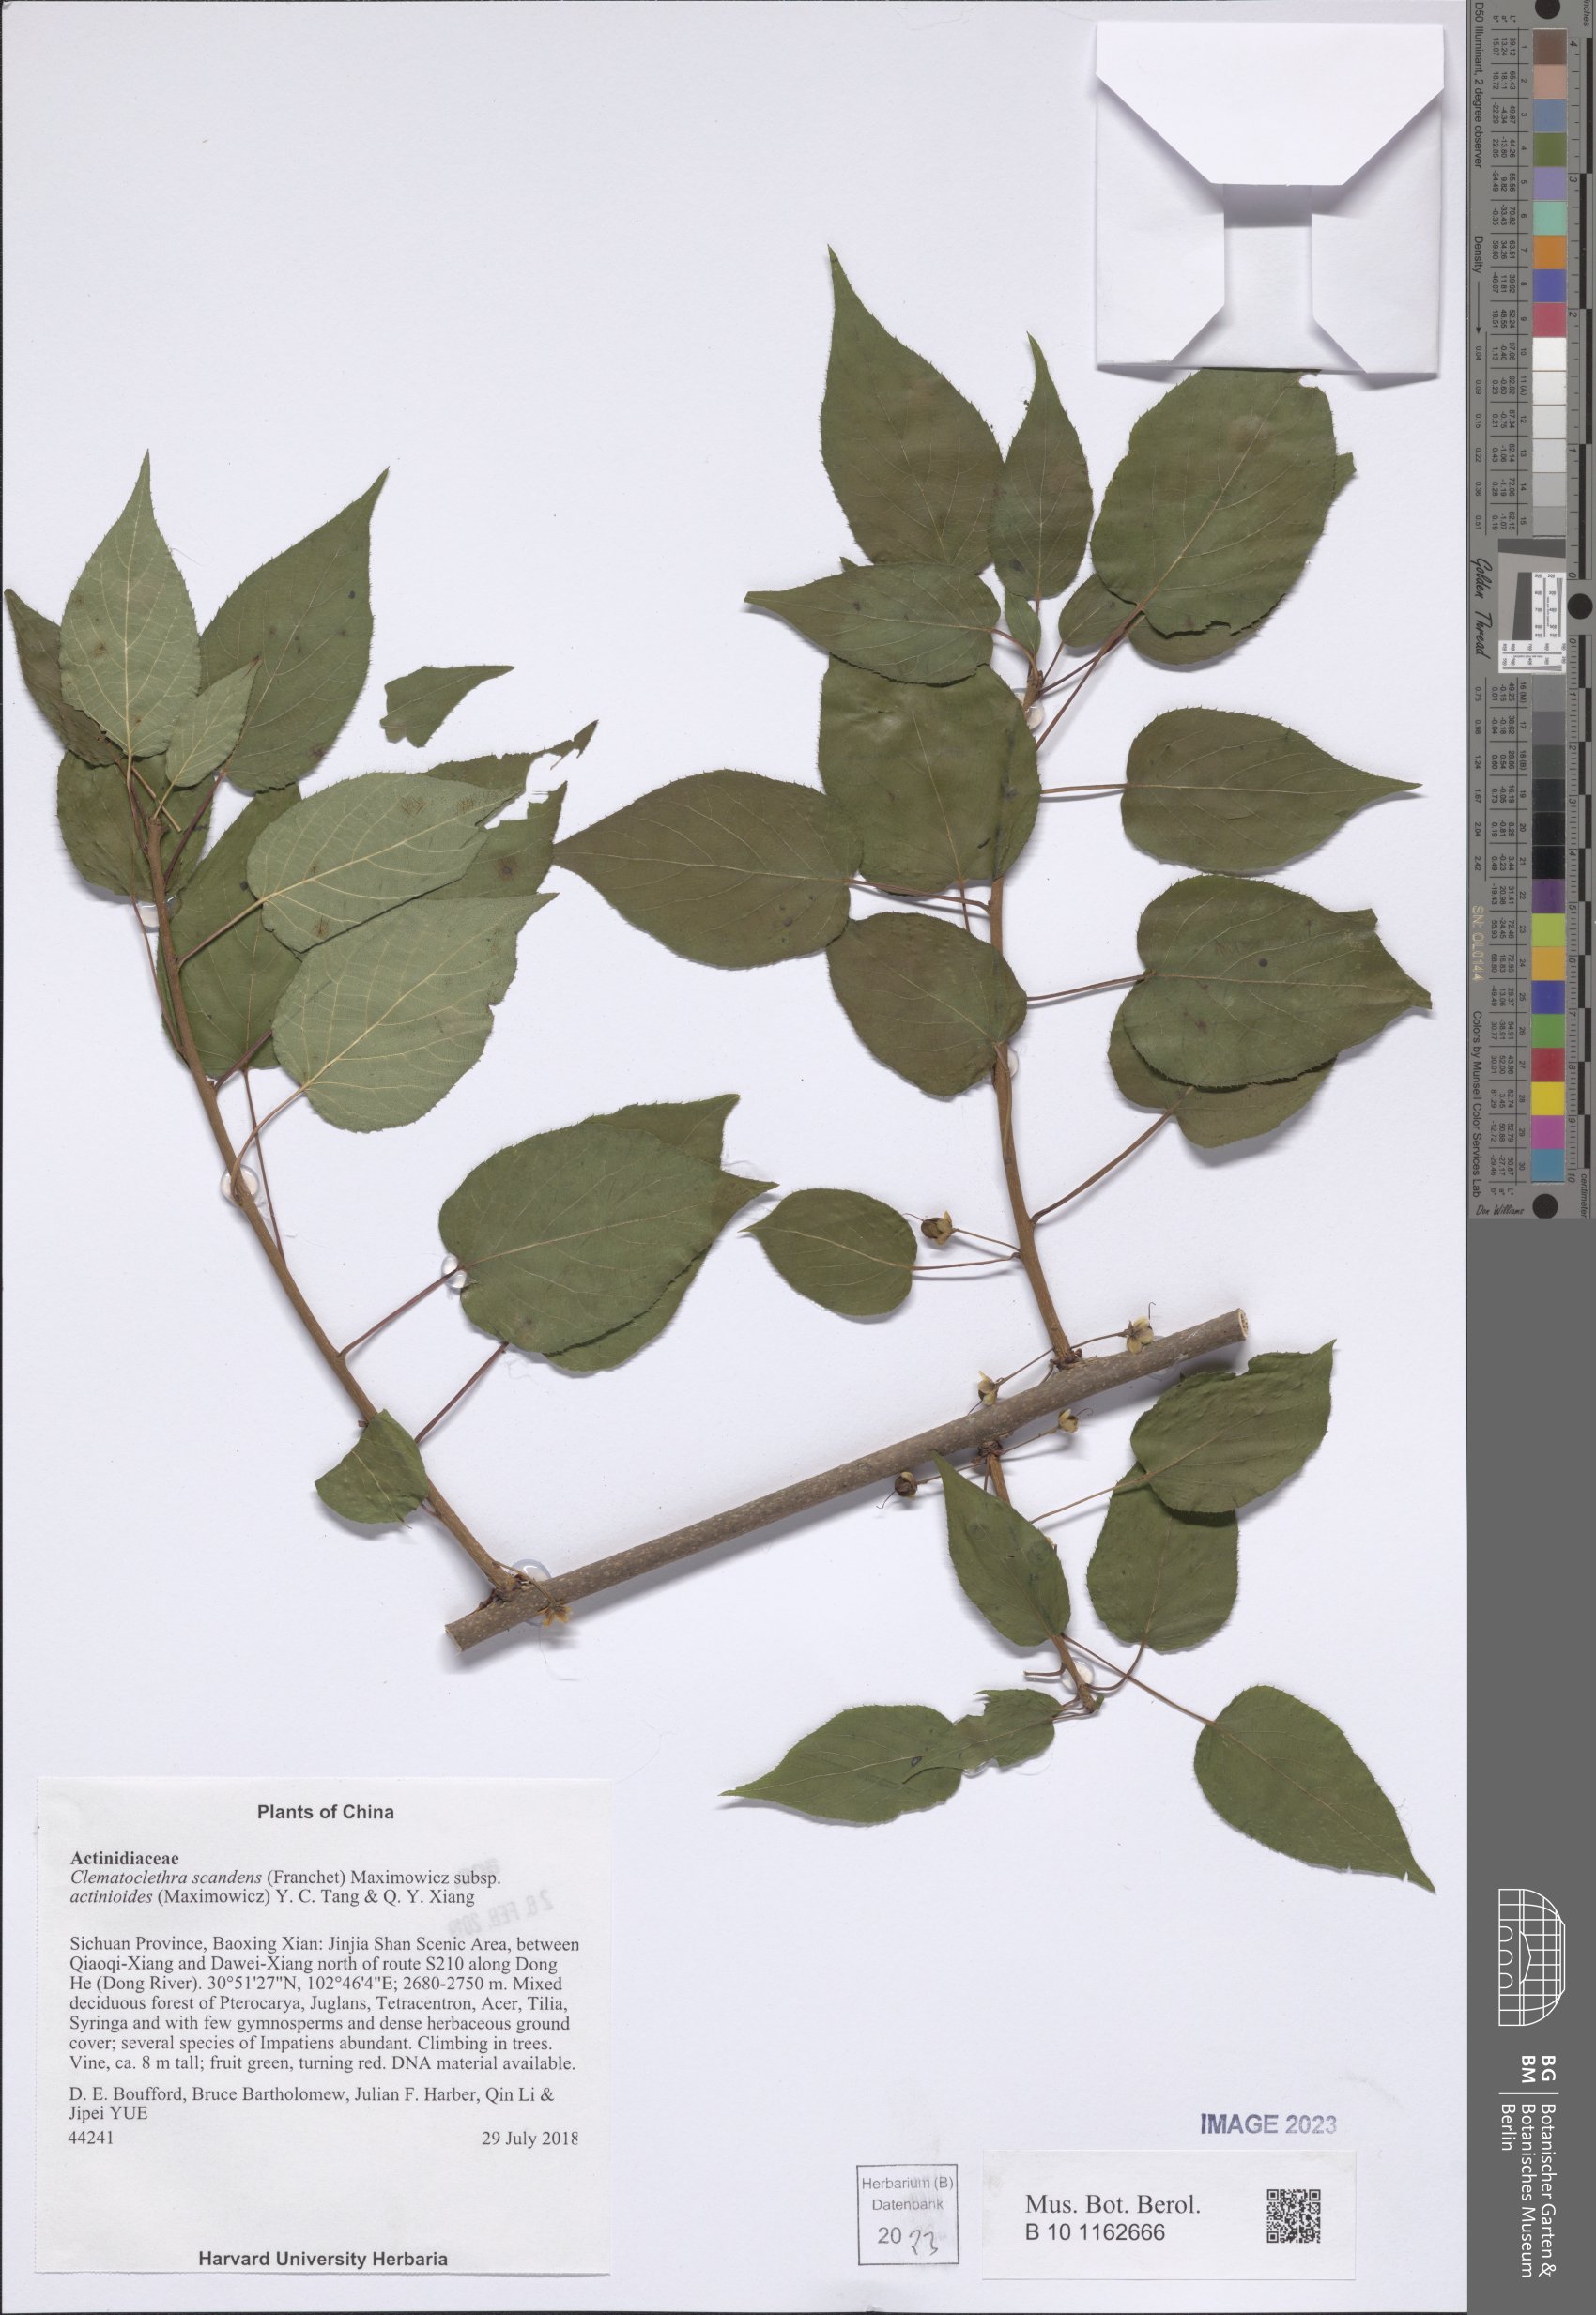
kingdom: Plantae
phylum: Tracheophyta
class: Magnoliopsida
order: Ericales
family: Actinidiaceae
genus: Clematoclethra
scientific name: Clematoclethra scandens
